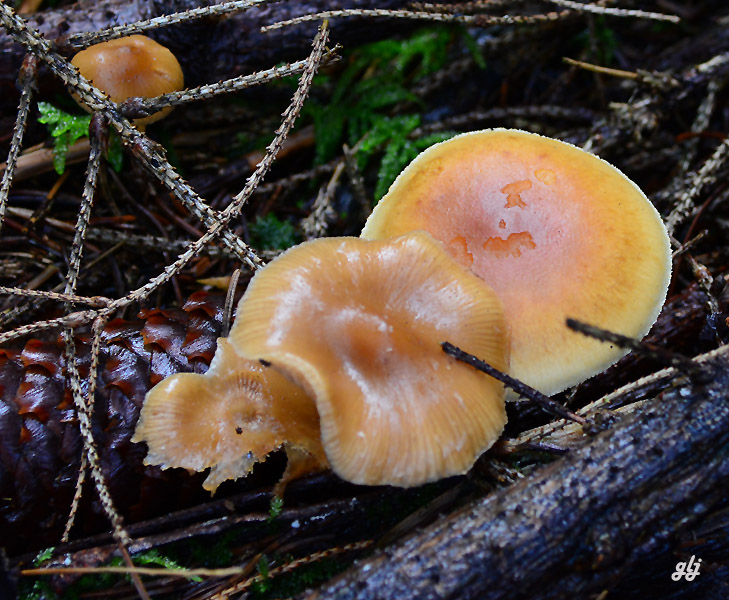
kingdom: Fungi
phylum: Basidiomycota
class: Agaricomycetes
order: Agaricales
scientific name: Agaricales
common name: champignonordenen
